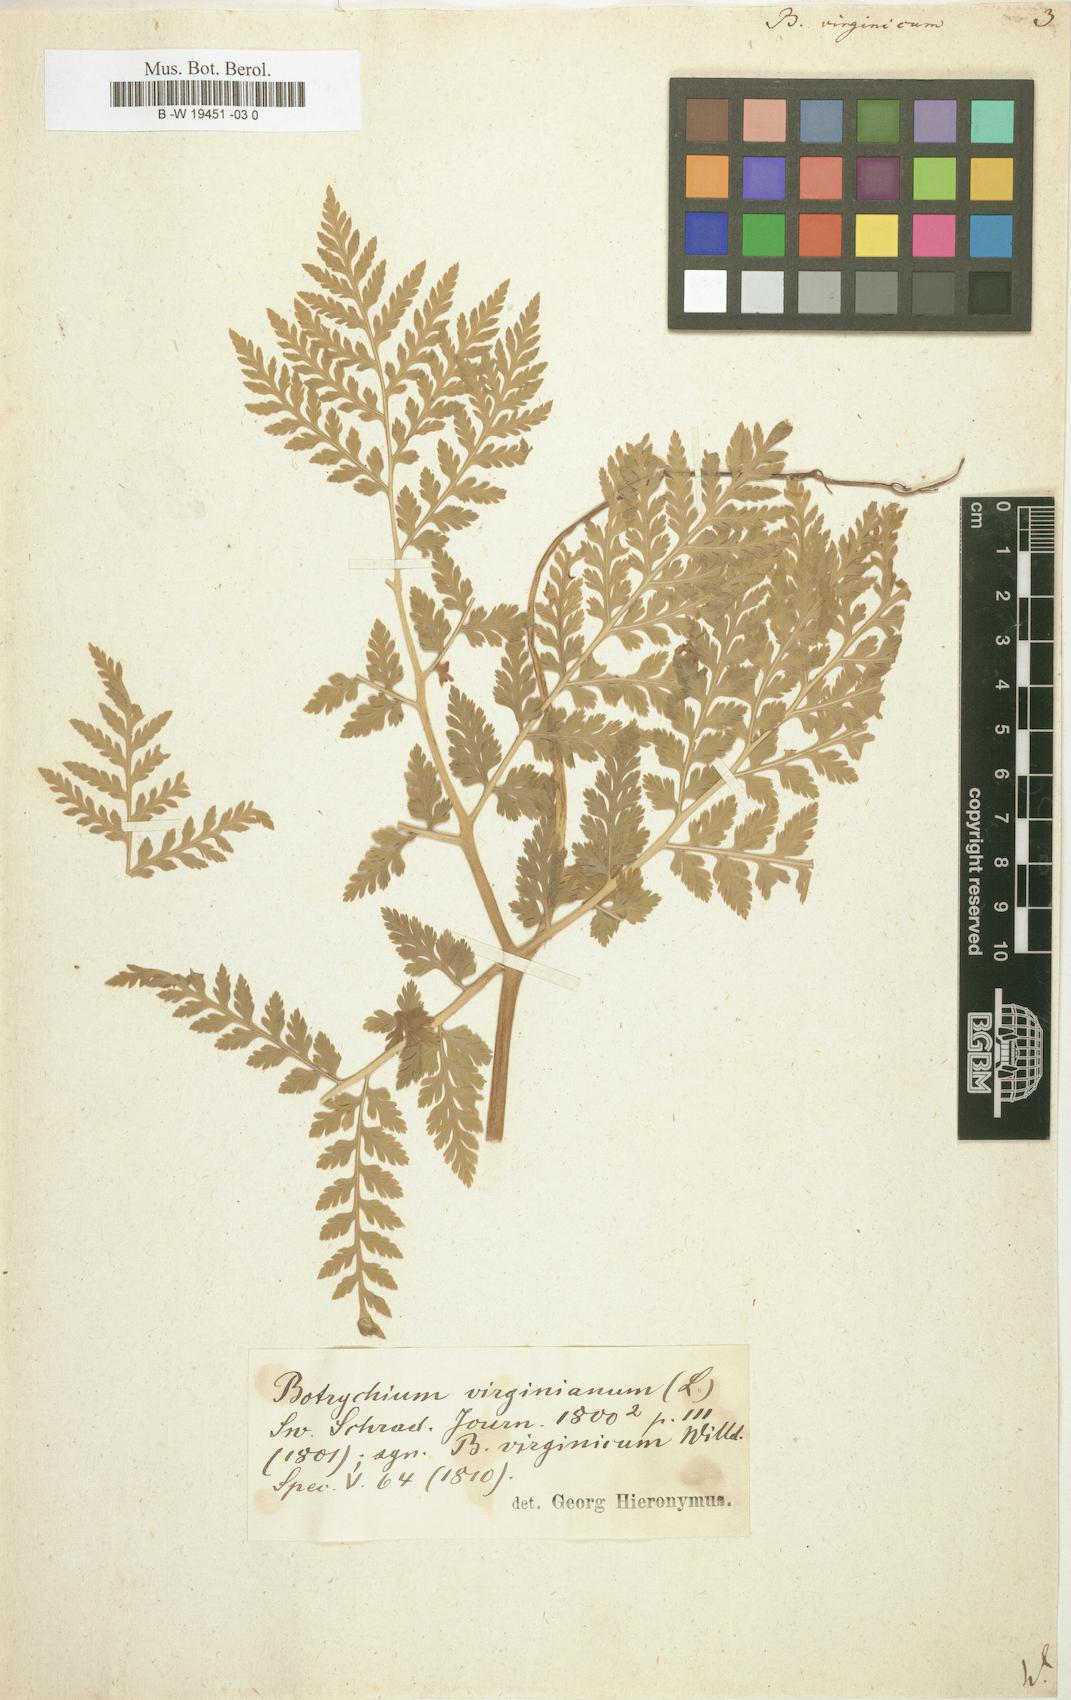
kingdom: Plantae
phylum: Tracheophyta
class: Polypodiopsida
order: Ophioglossales
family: Ophioglossaceae
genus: Botrypus
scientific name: Botrypus virginianus
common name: Common grapefern
